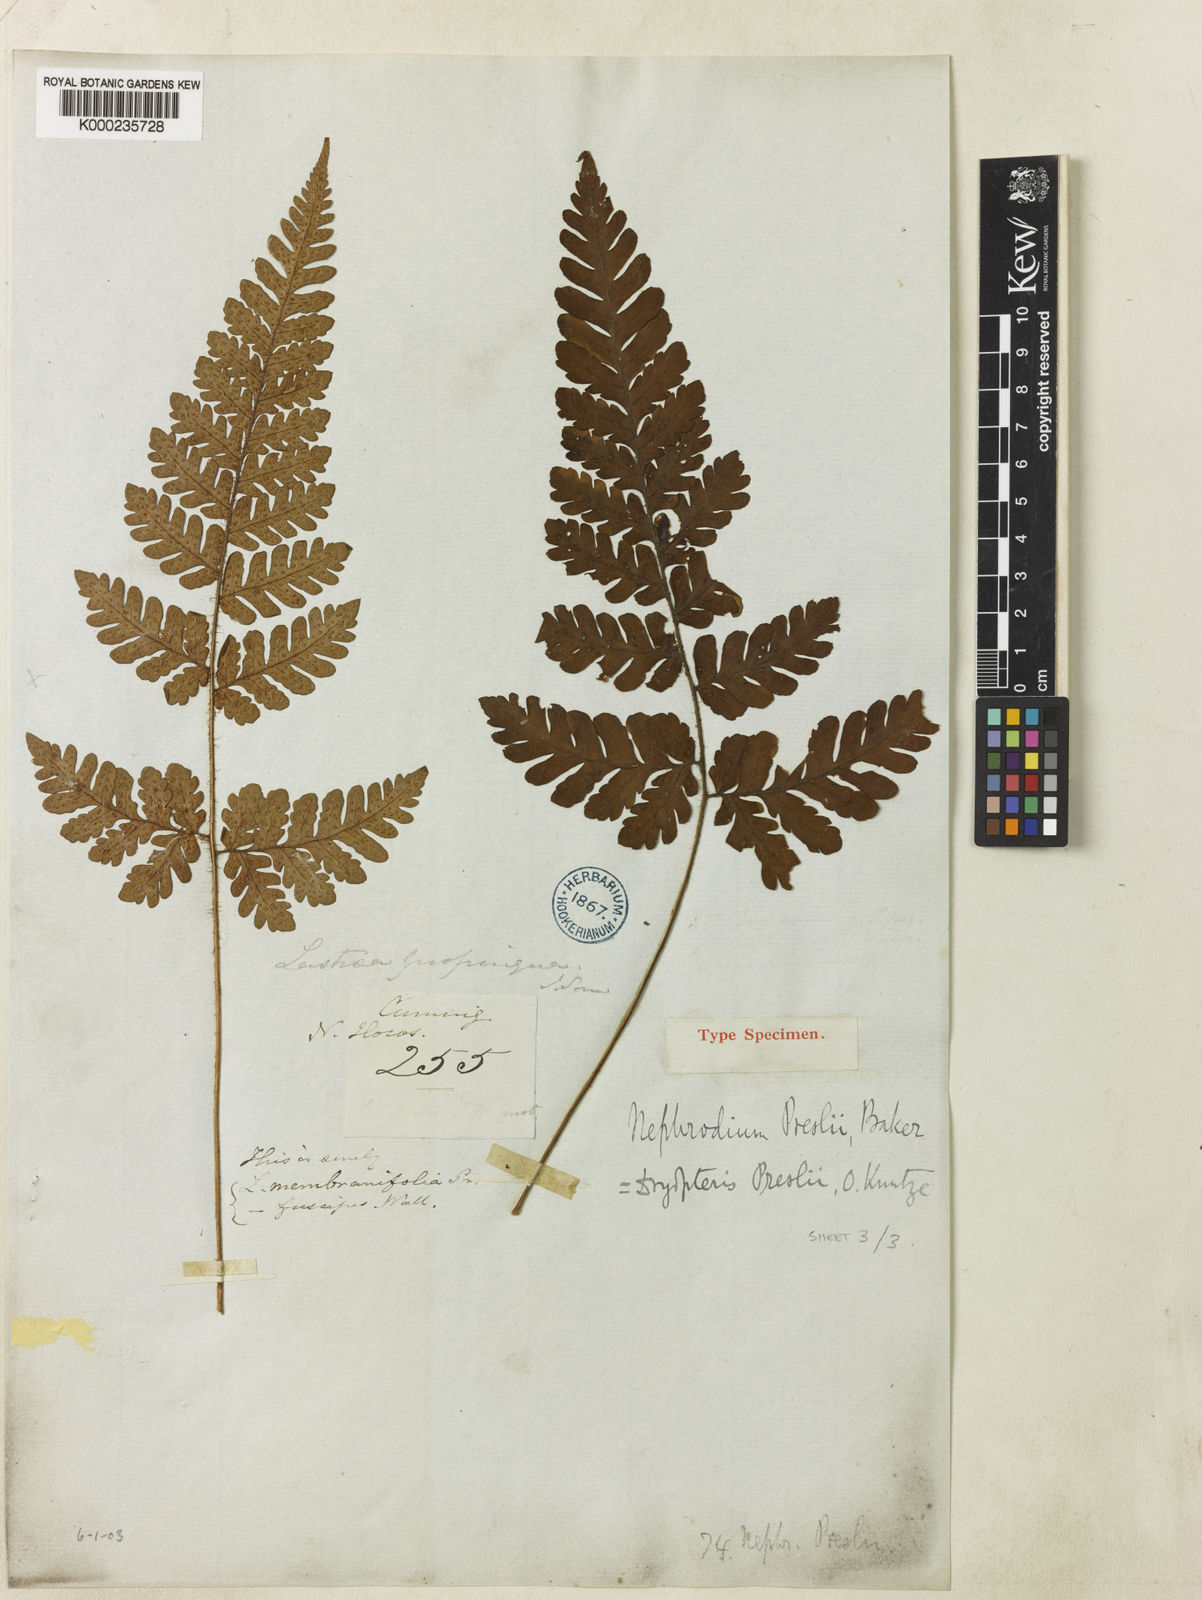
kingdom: Plantae
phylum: Tracheophyta
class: Polypodiopsida
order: Polypodiales
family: Dryopteridaceae
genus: Ctenitis
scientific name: Ctenitis propinqua
